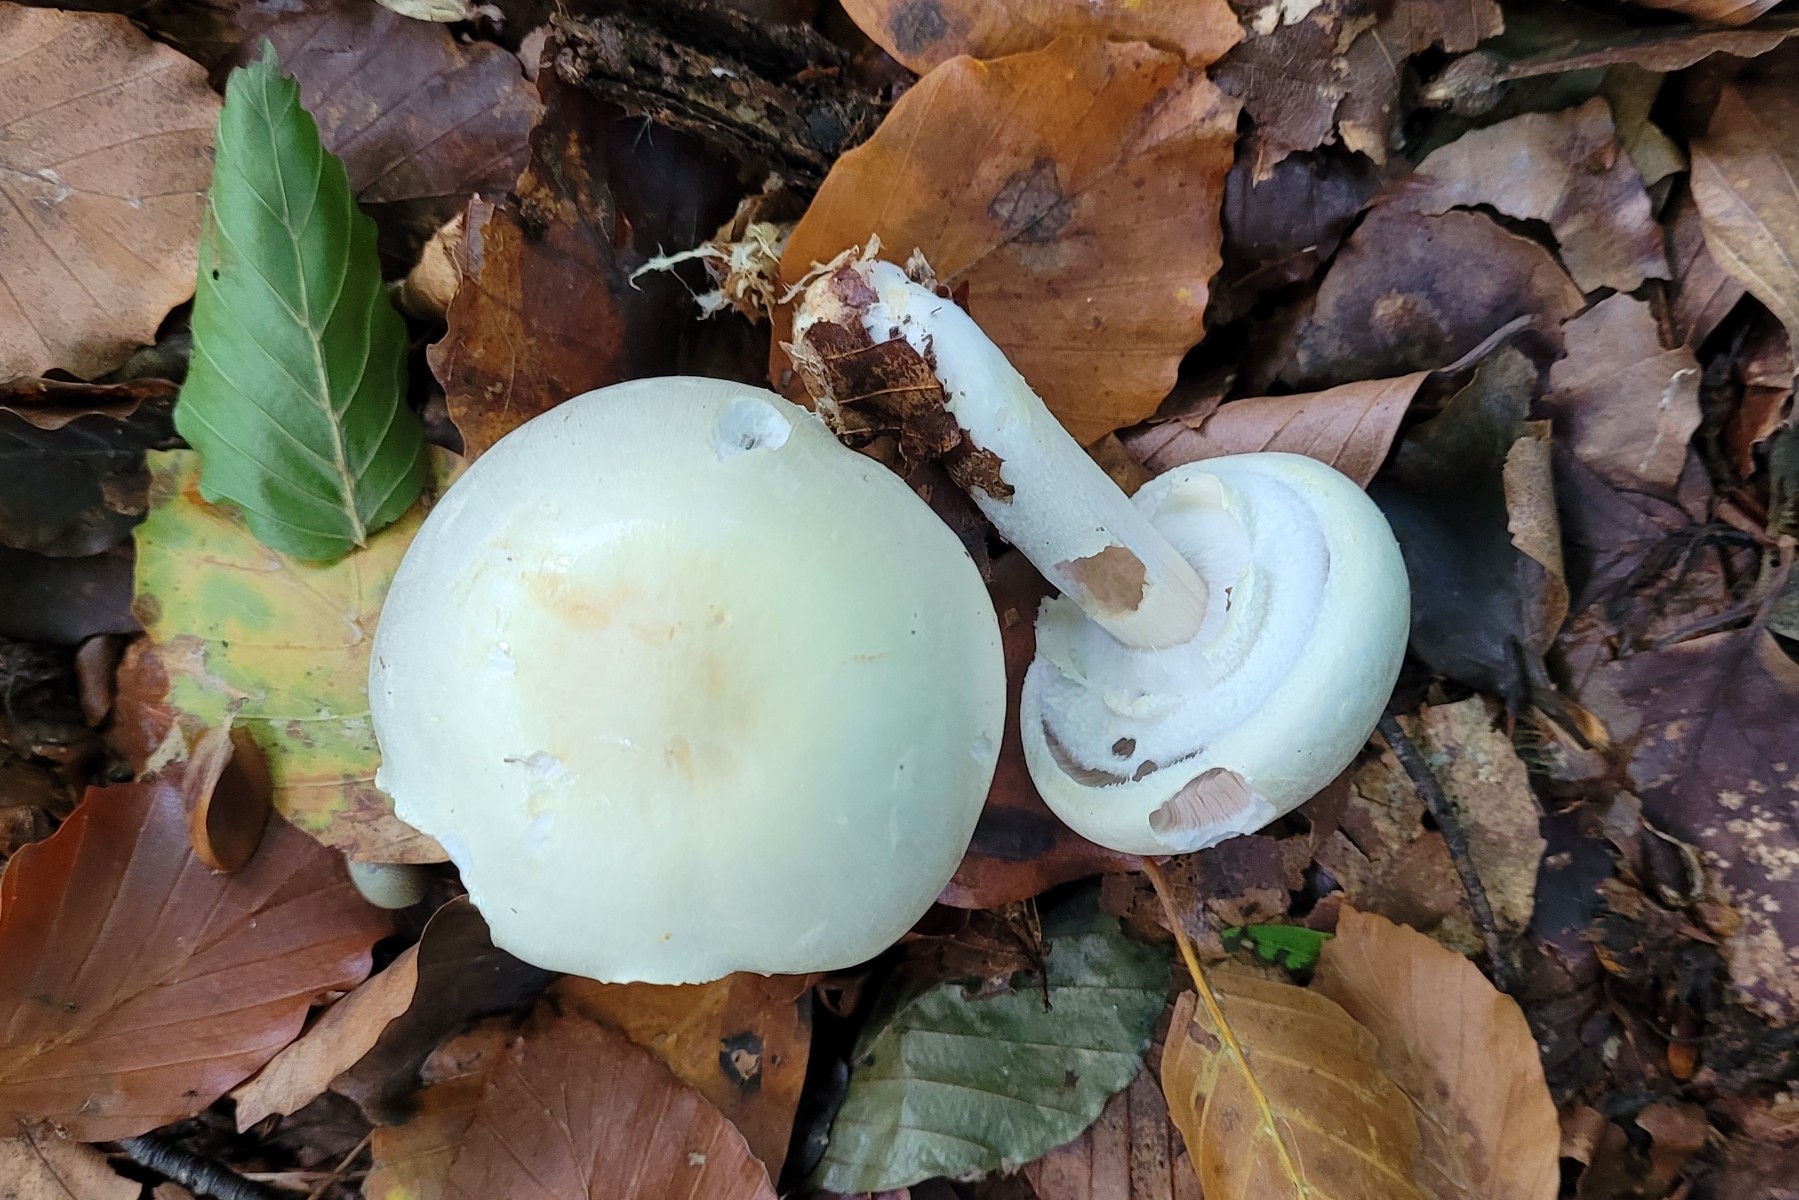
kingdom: Fungi
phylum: Basidiomycota
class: Agaricomycetes
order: Agaricales
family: Agaricaceae
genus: Agaricus
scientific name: Agaricus sylvicola
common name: gulhvid champignon
